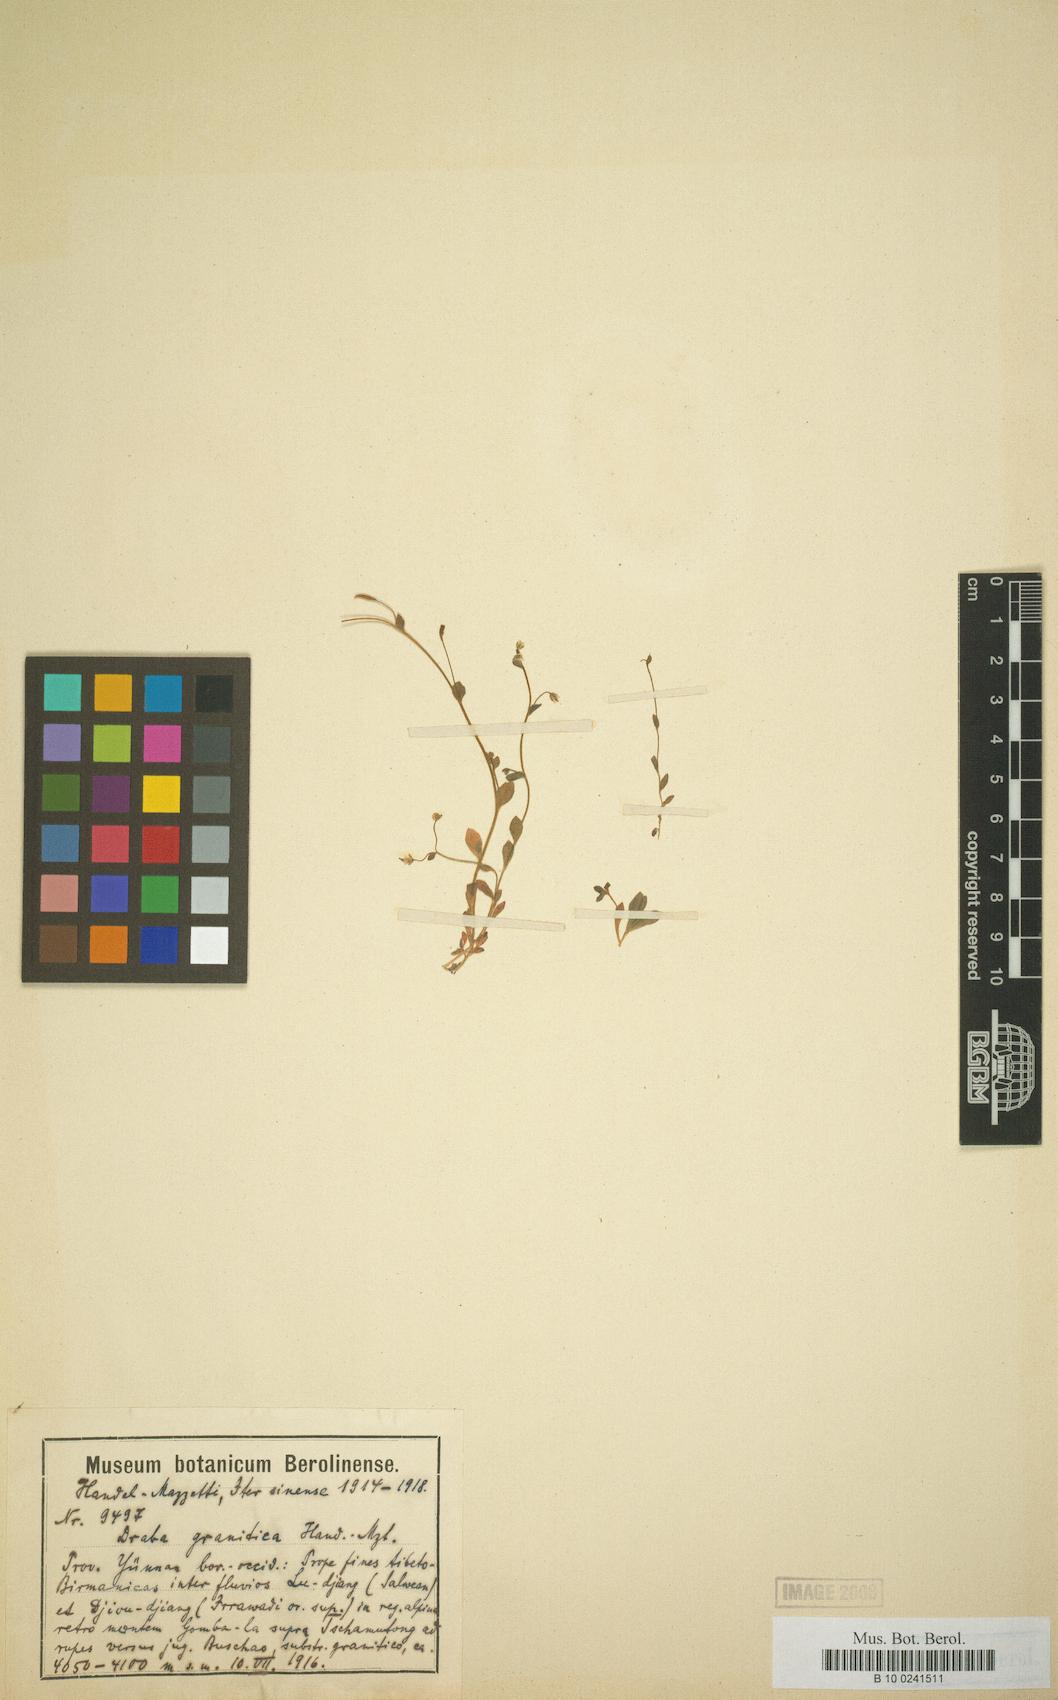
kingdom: Plantae
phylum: Tracheophyta
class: Magnoliopsida
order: Brassicales
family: Brassicaceae
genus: Draba
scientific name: Draba gracillima
